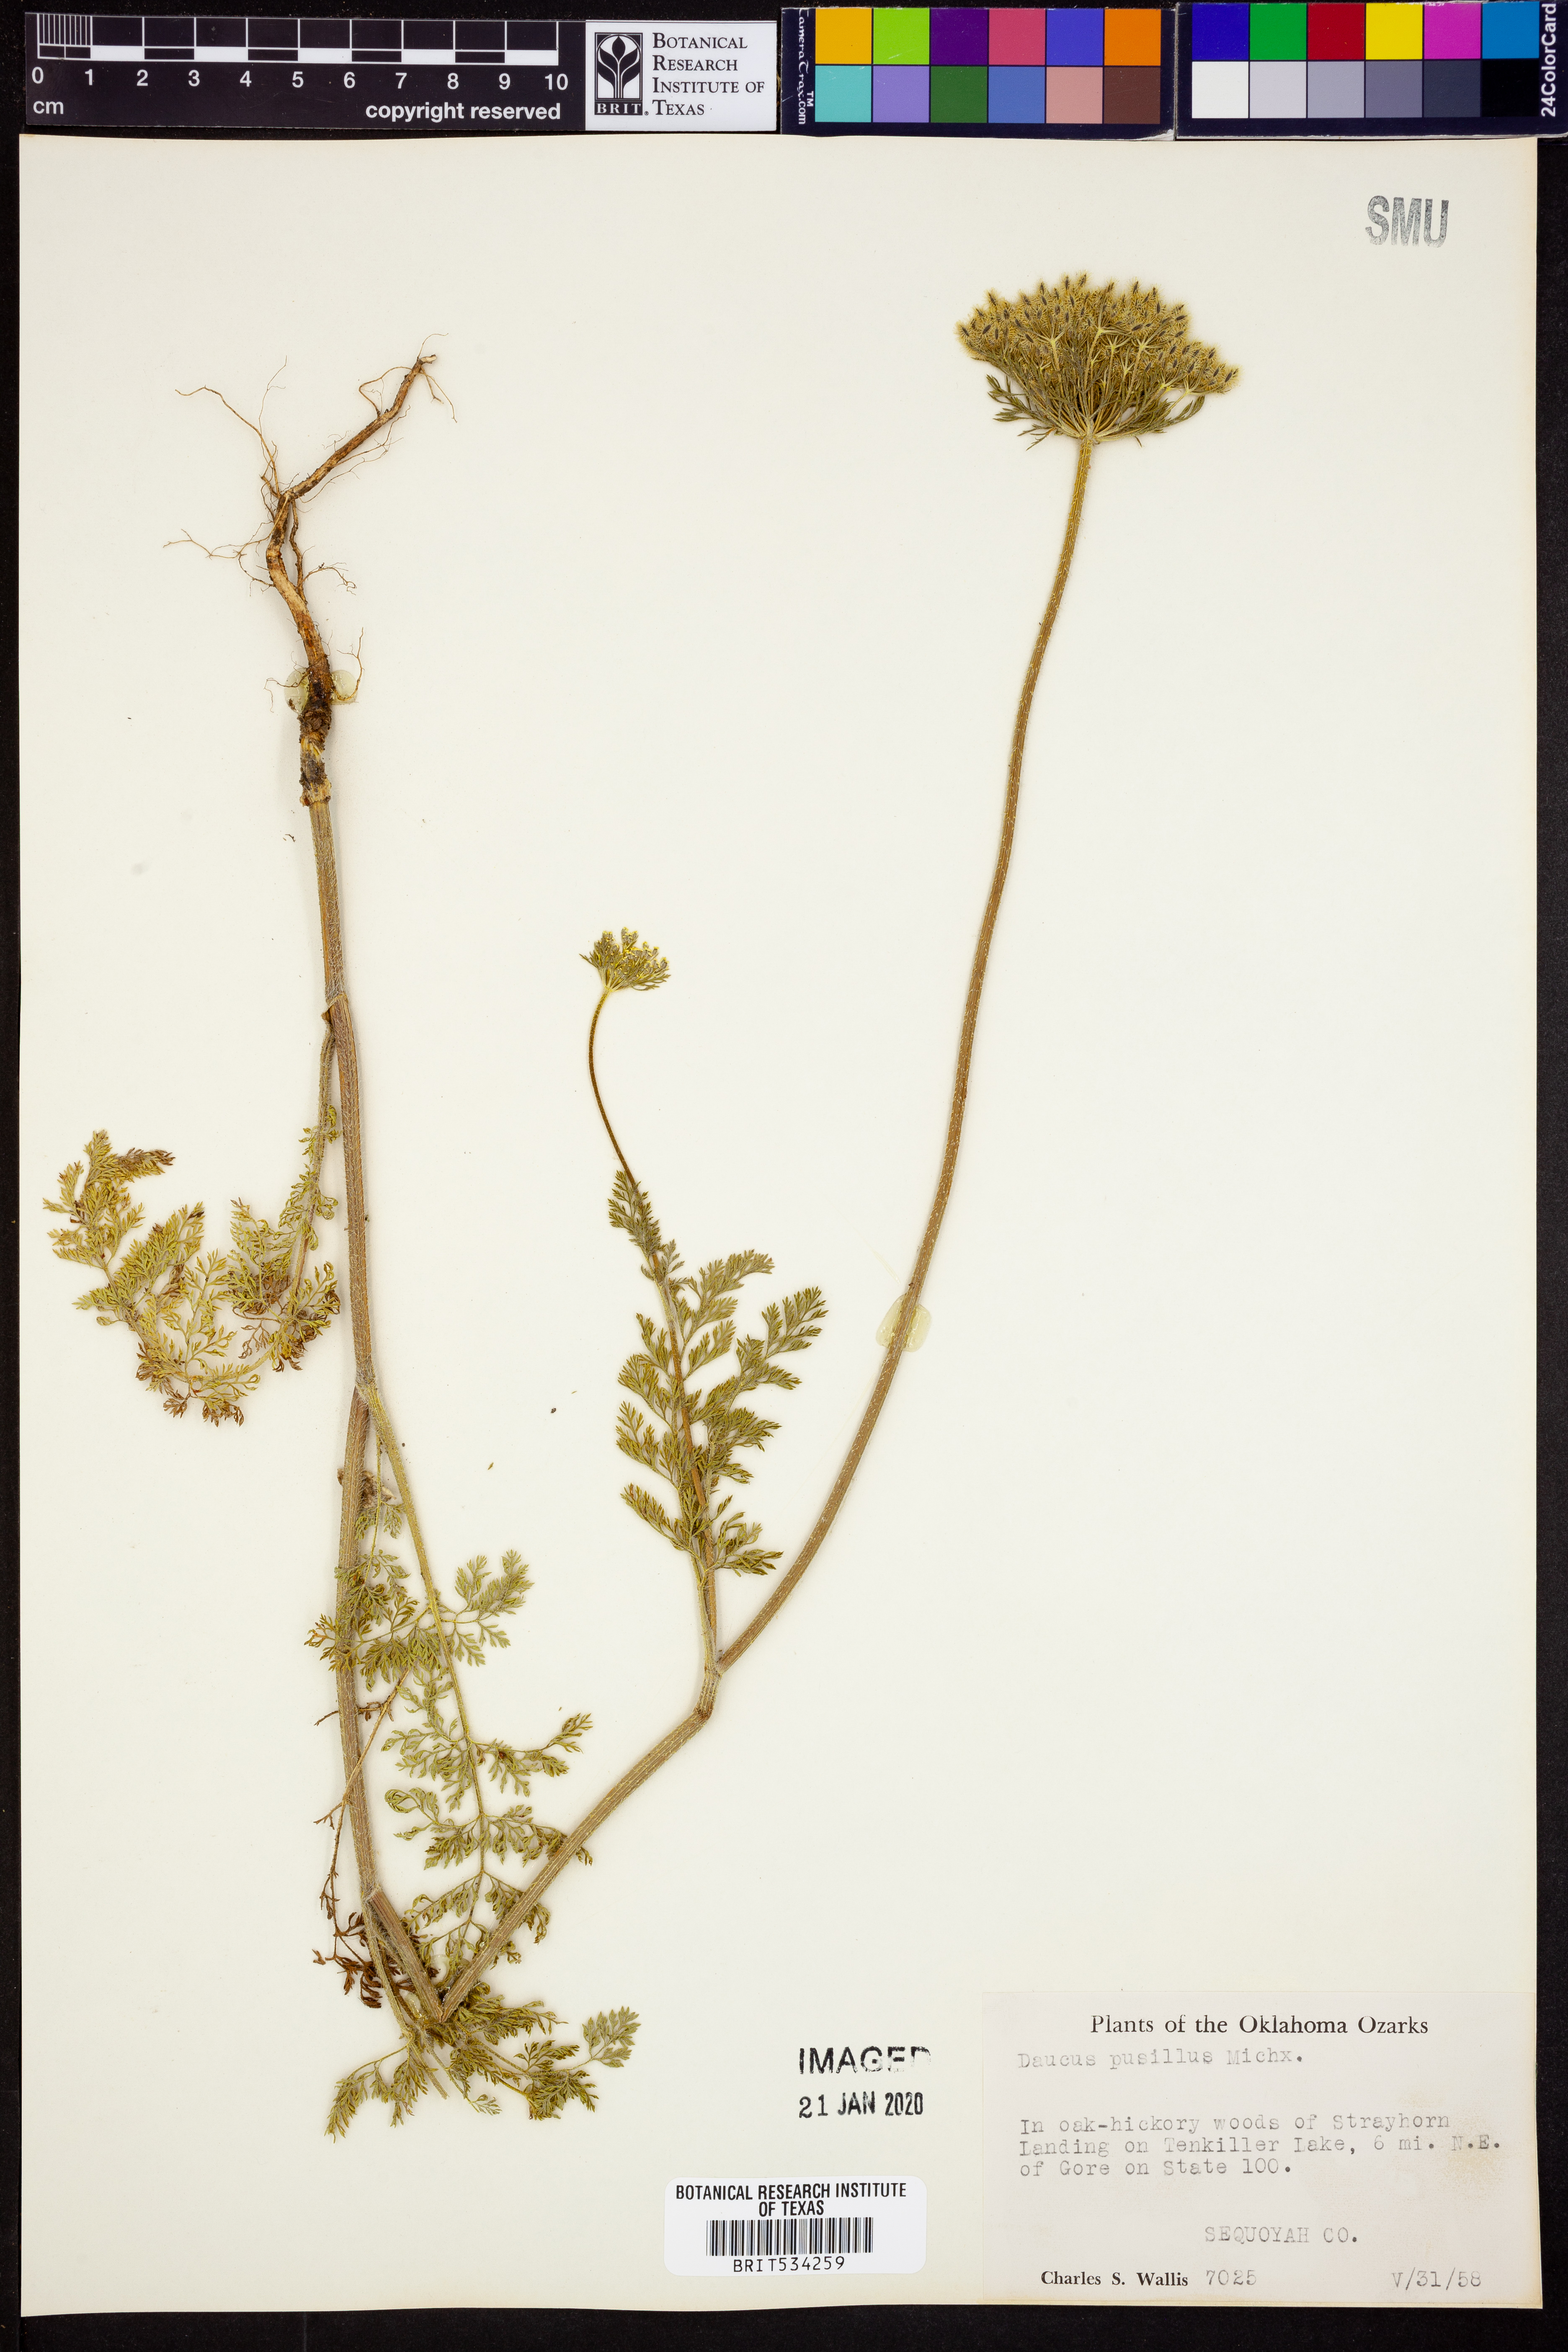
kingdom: Plantae
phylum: Tracheophyta
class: Magnoliopsida
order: Apiales
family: Apiaceae
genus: Daucus
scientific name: Daucus pusillus
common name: Southwest wild carrot
